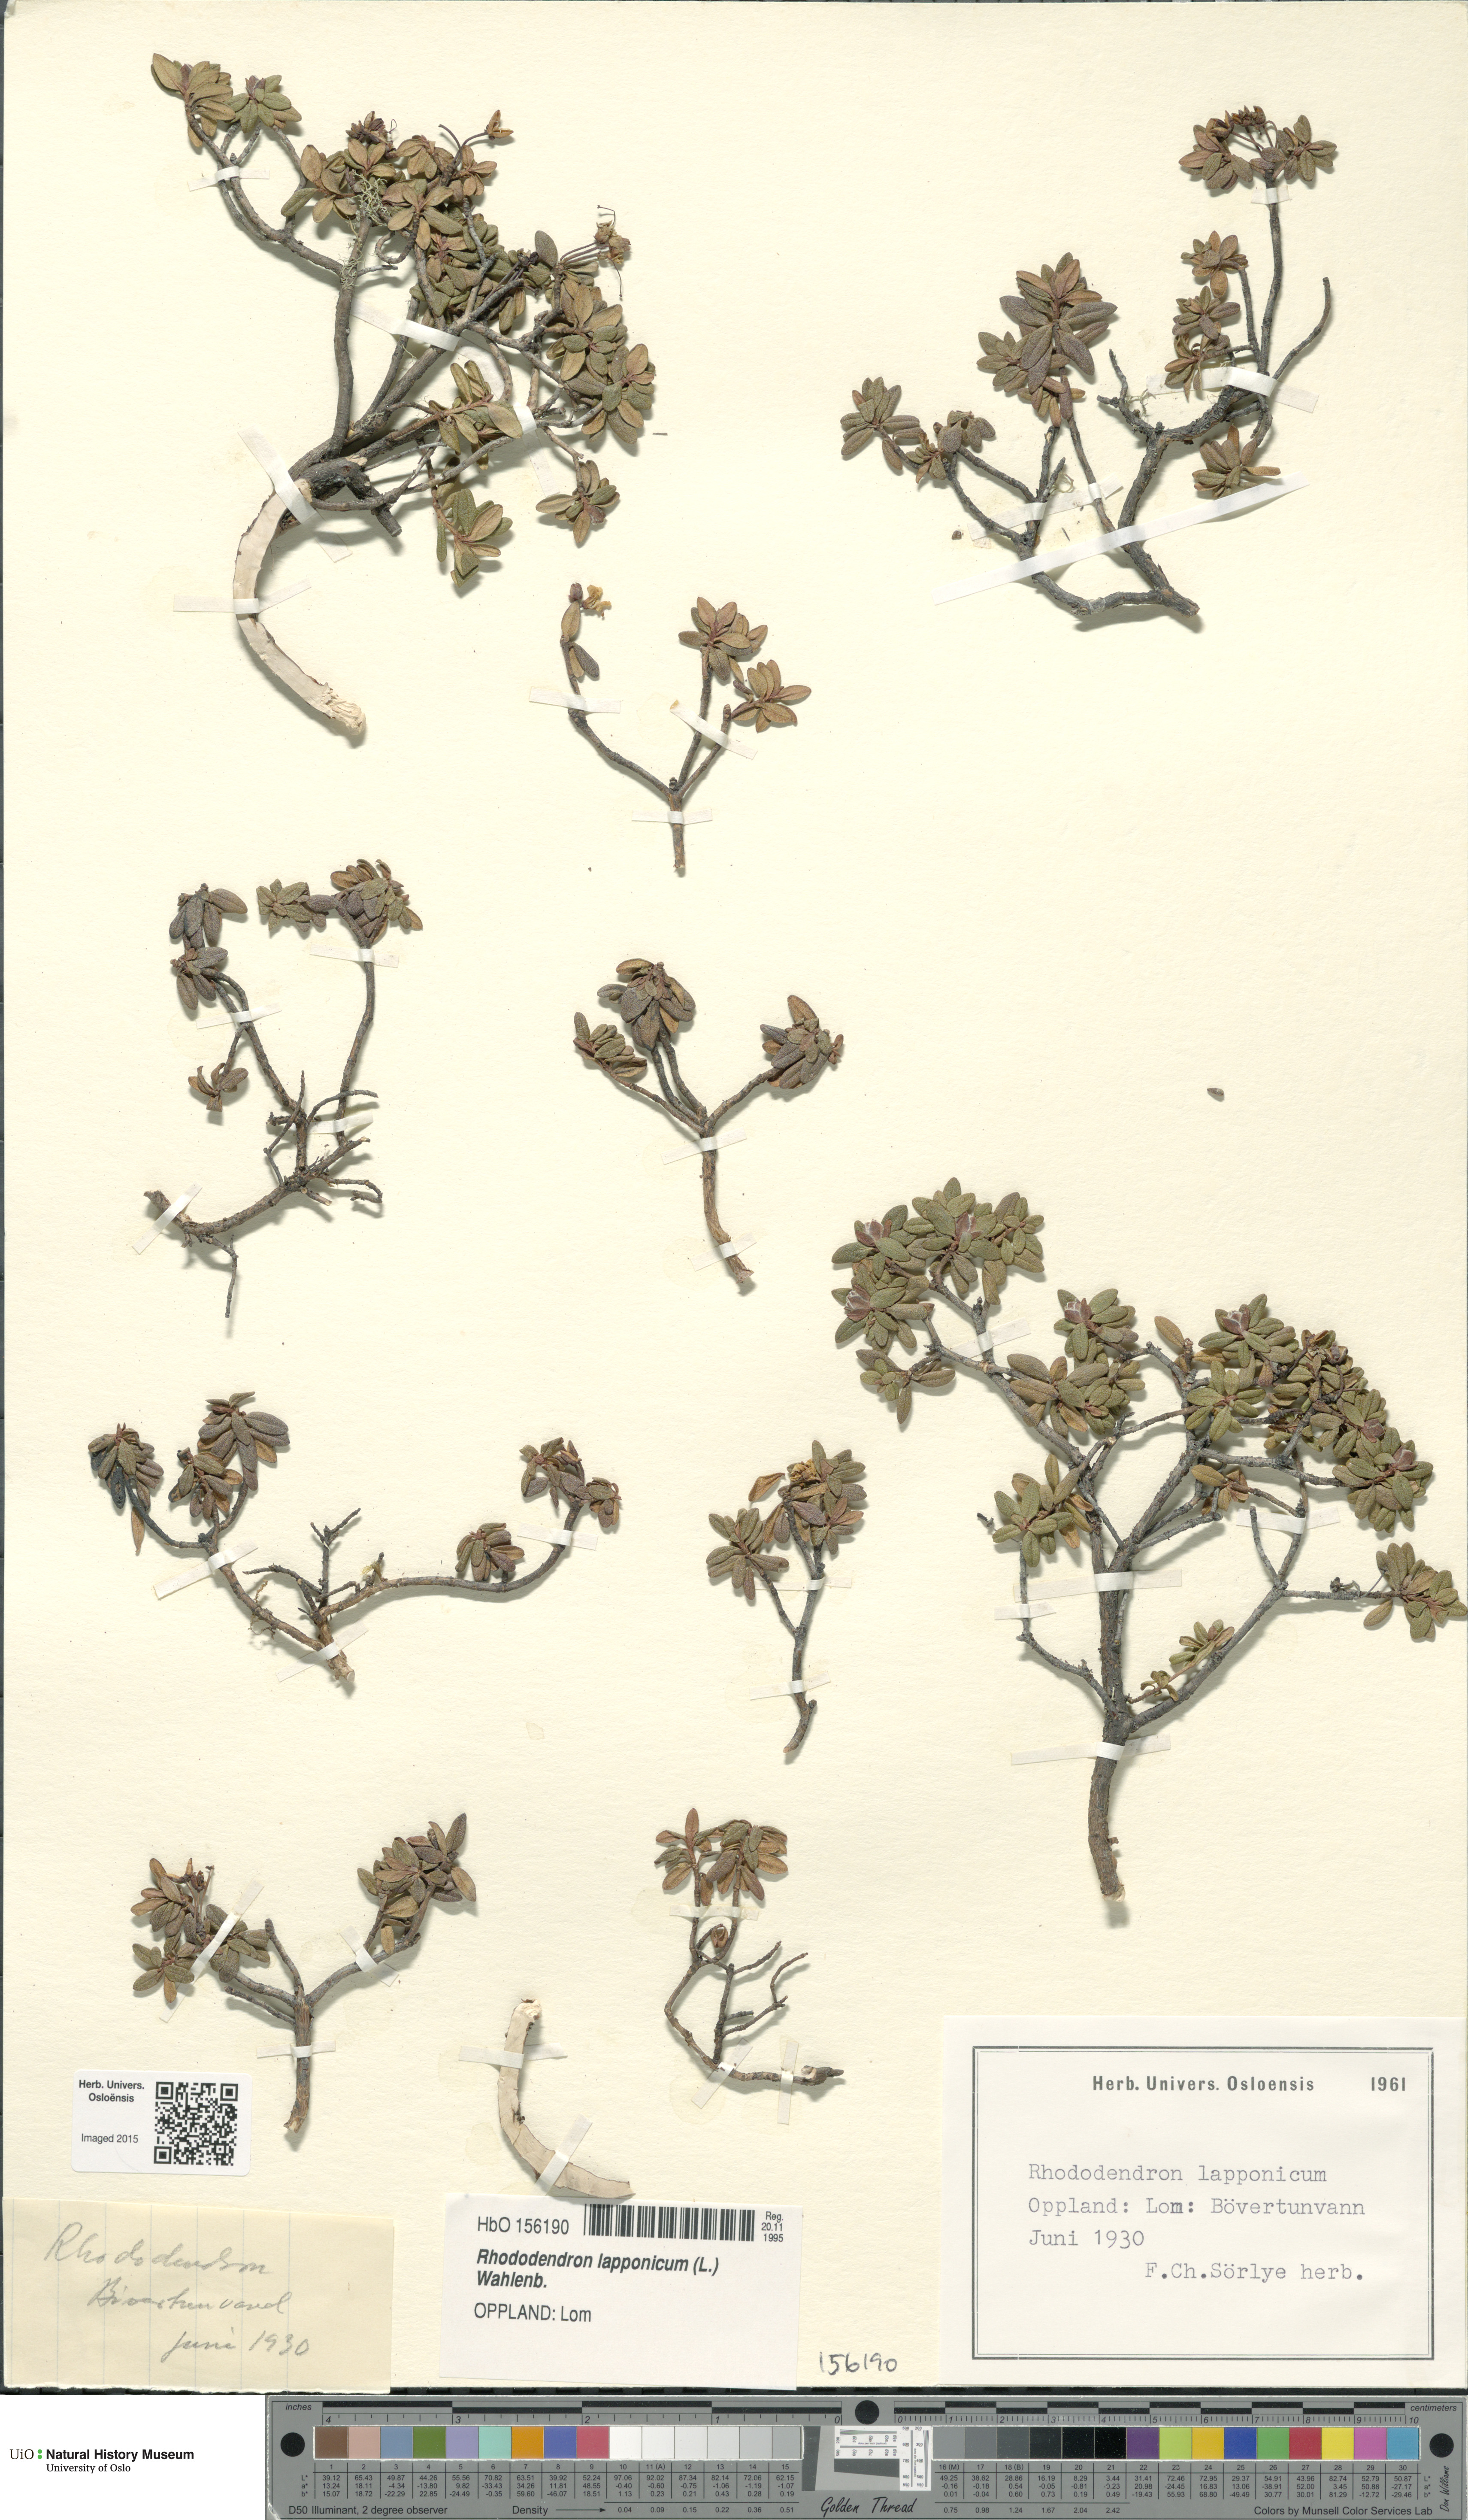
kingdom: Plantae
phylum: Tracheophyta
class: Magnoliopsida
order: Ericales
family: Ericaceae
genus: Rhododendron
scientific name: Rhododendron lapponicum
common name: Lapland rhododendron
